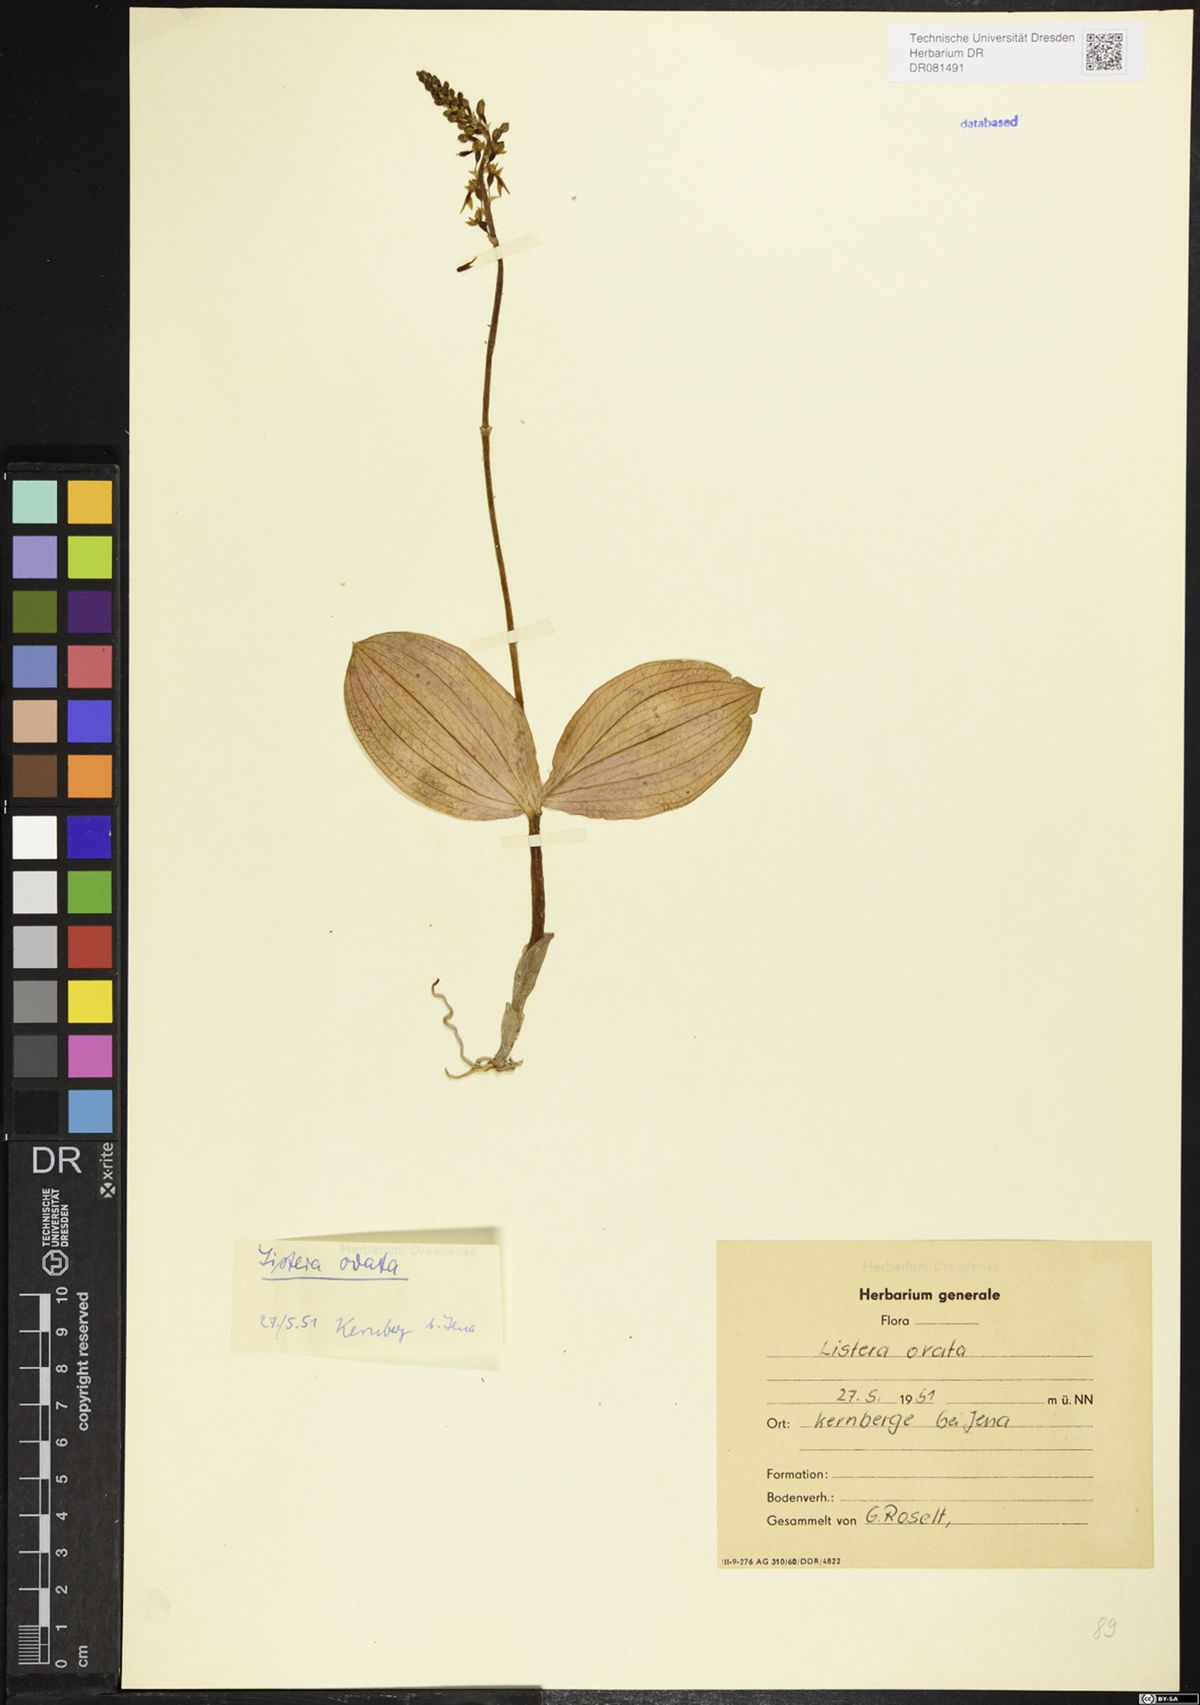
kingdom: Plantae
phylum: Tracheophyta
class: Liliopsida
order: Asparagales
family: Orchidaceae
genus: Neottia
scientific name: Neottia ovata
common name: Common twayblade
